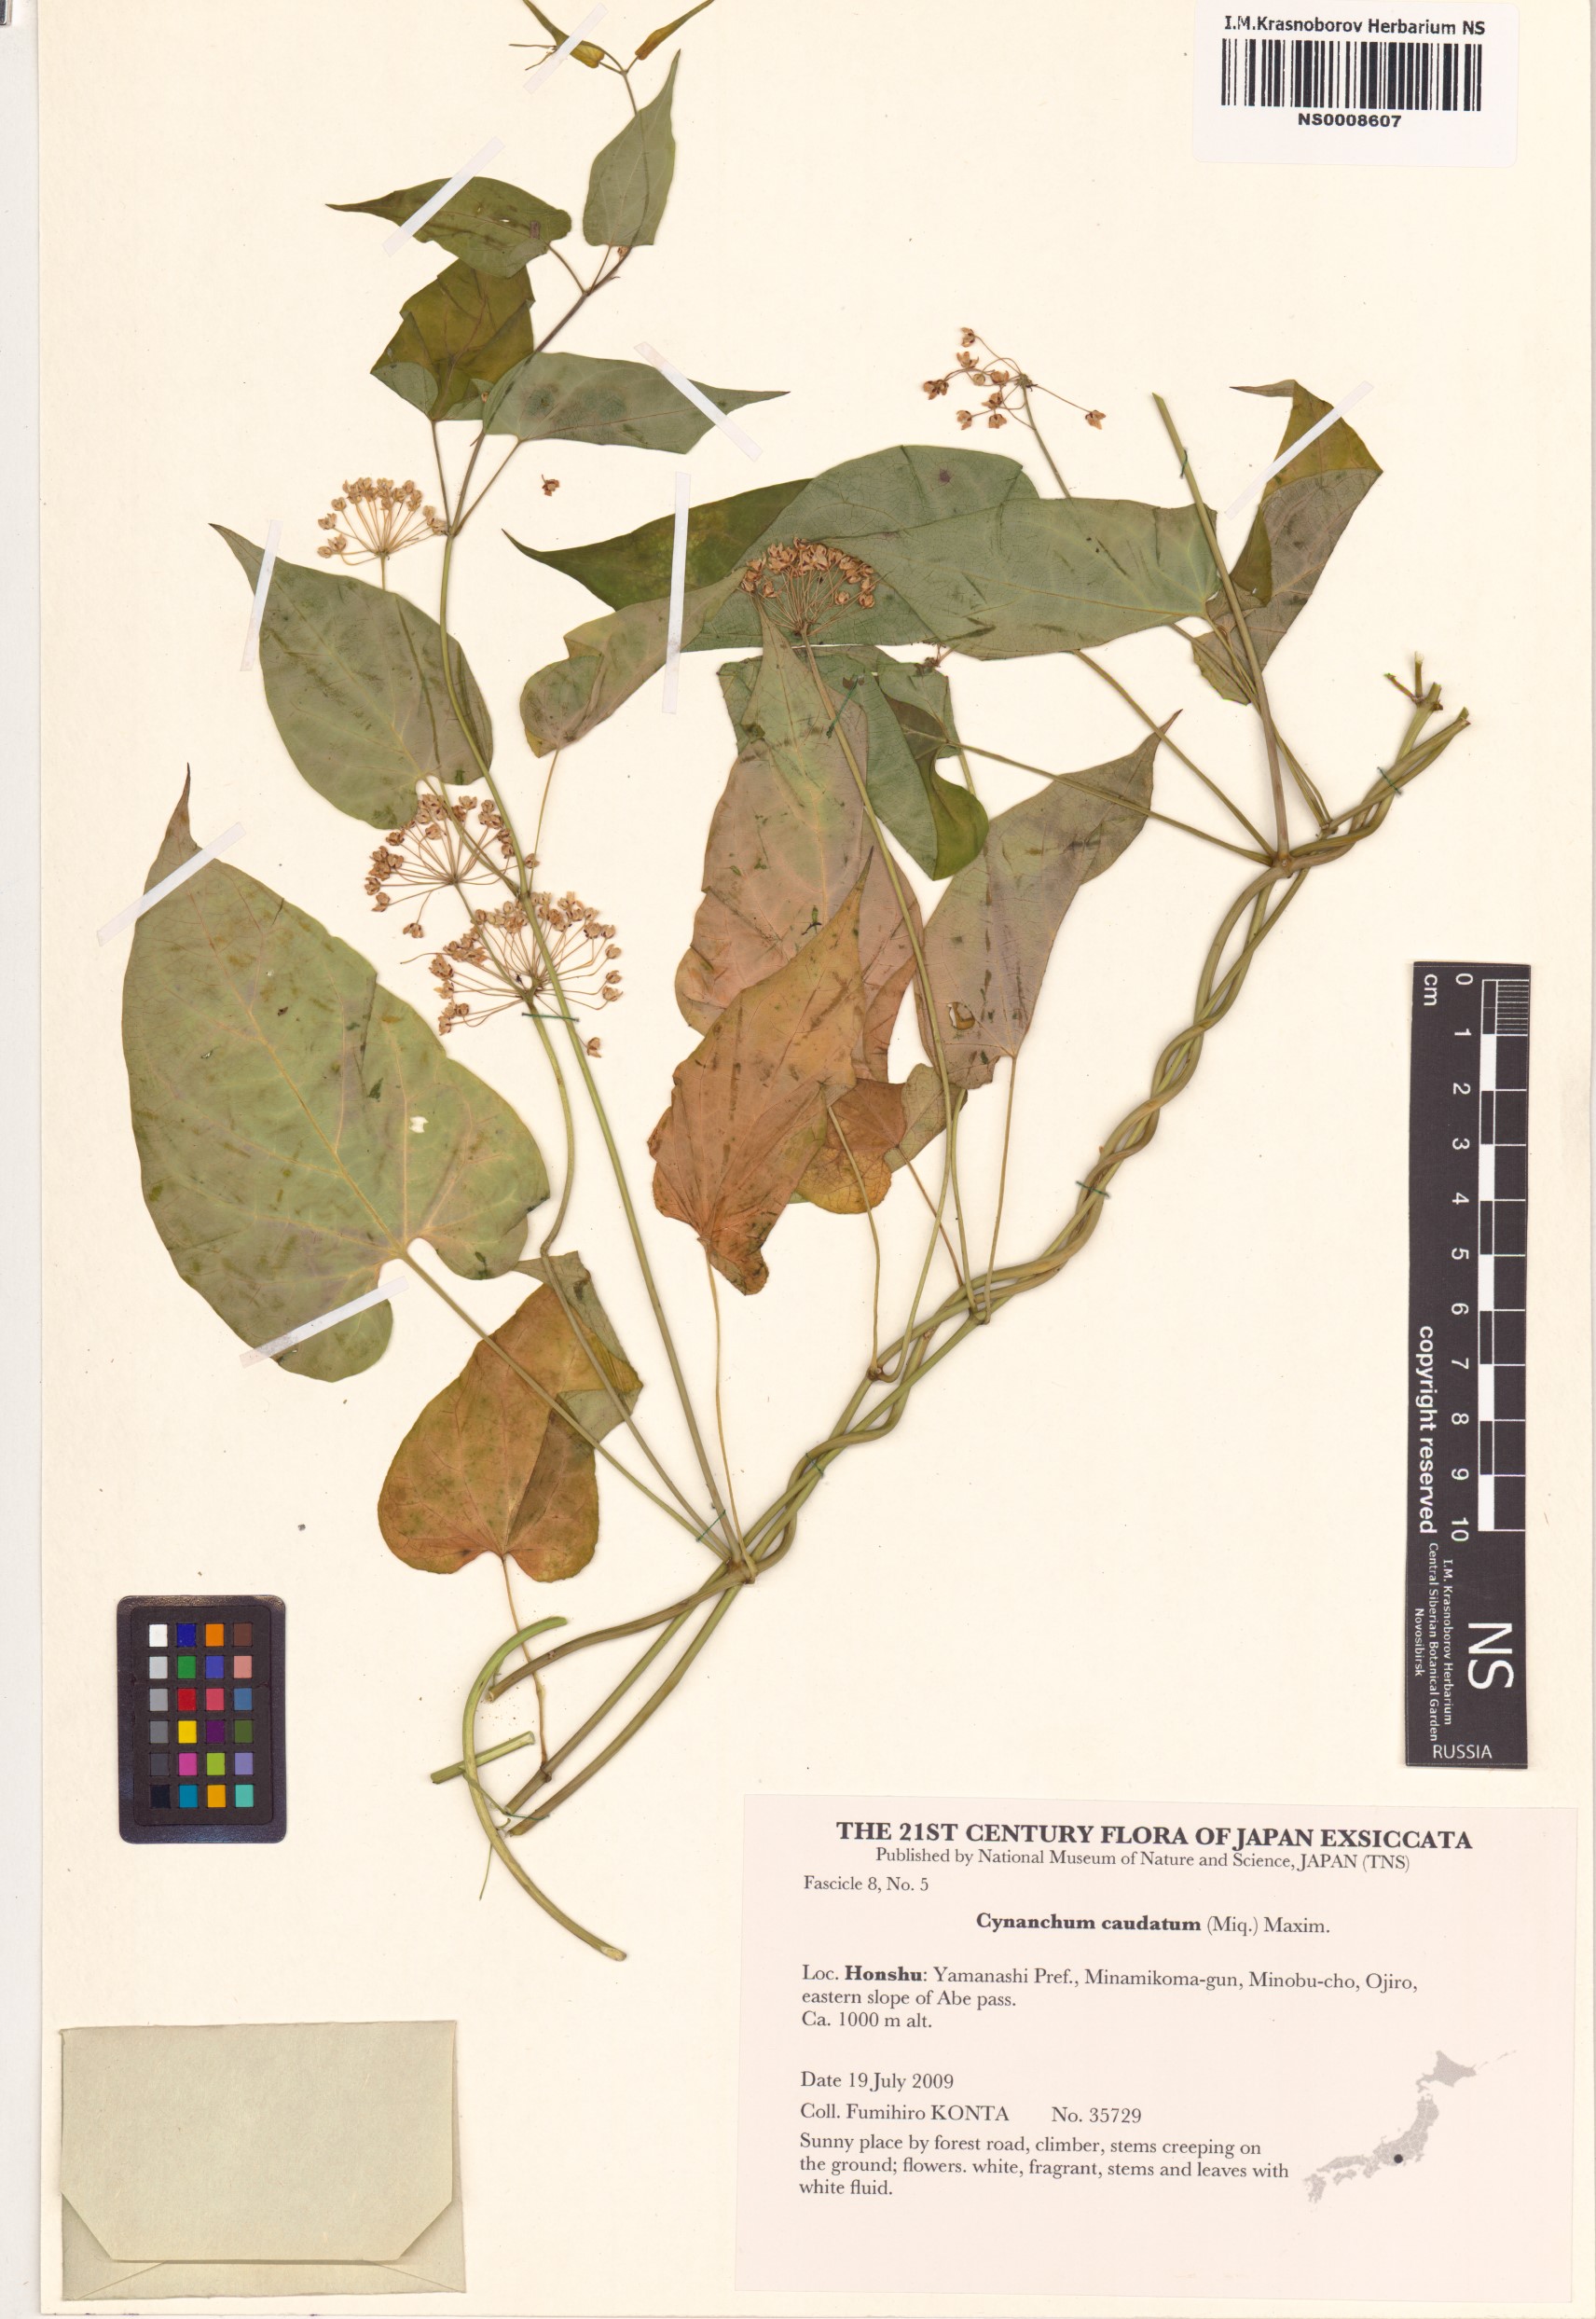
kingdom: Plantae
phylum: Tracheophyta
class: Magnoliopsida
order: Gentianales
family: Apocynaceae
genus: Cynanchum
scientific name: Cynanchum maximoviczii
